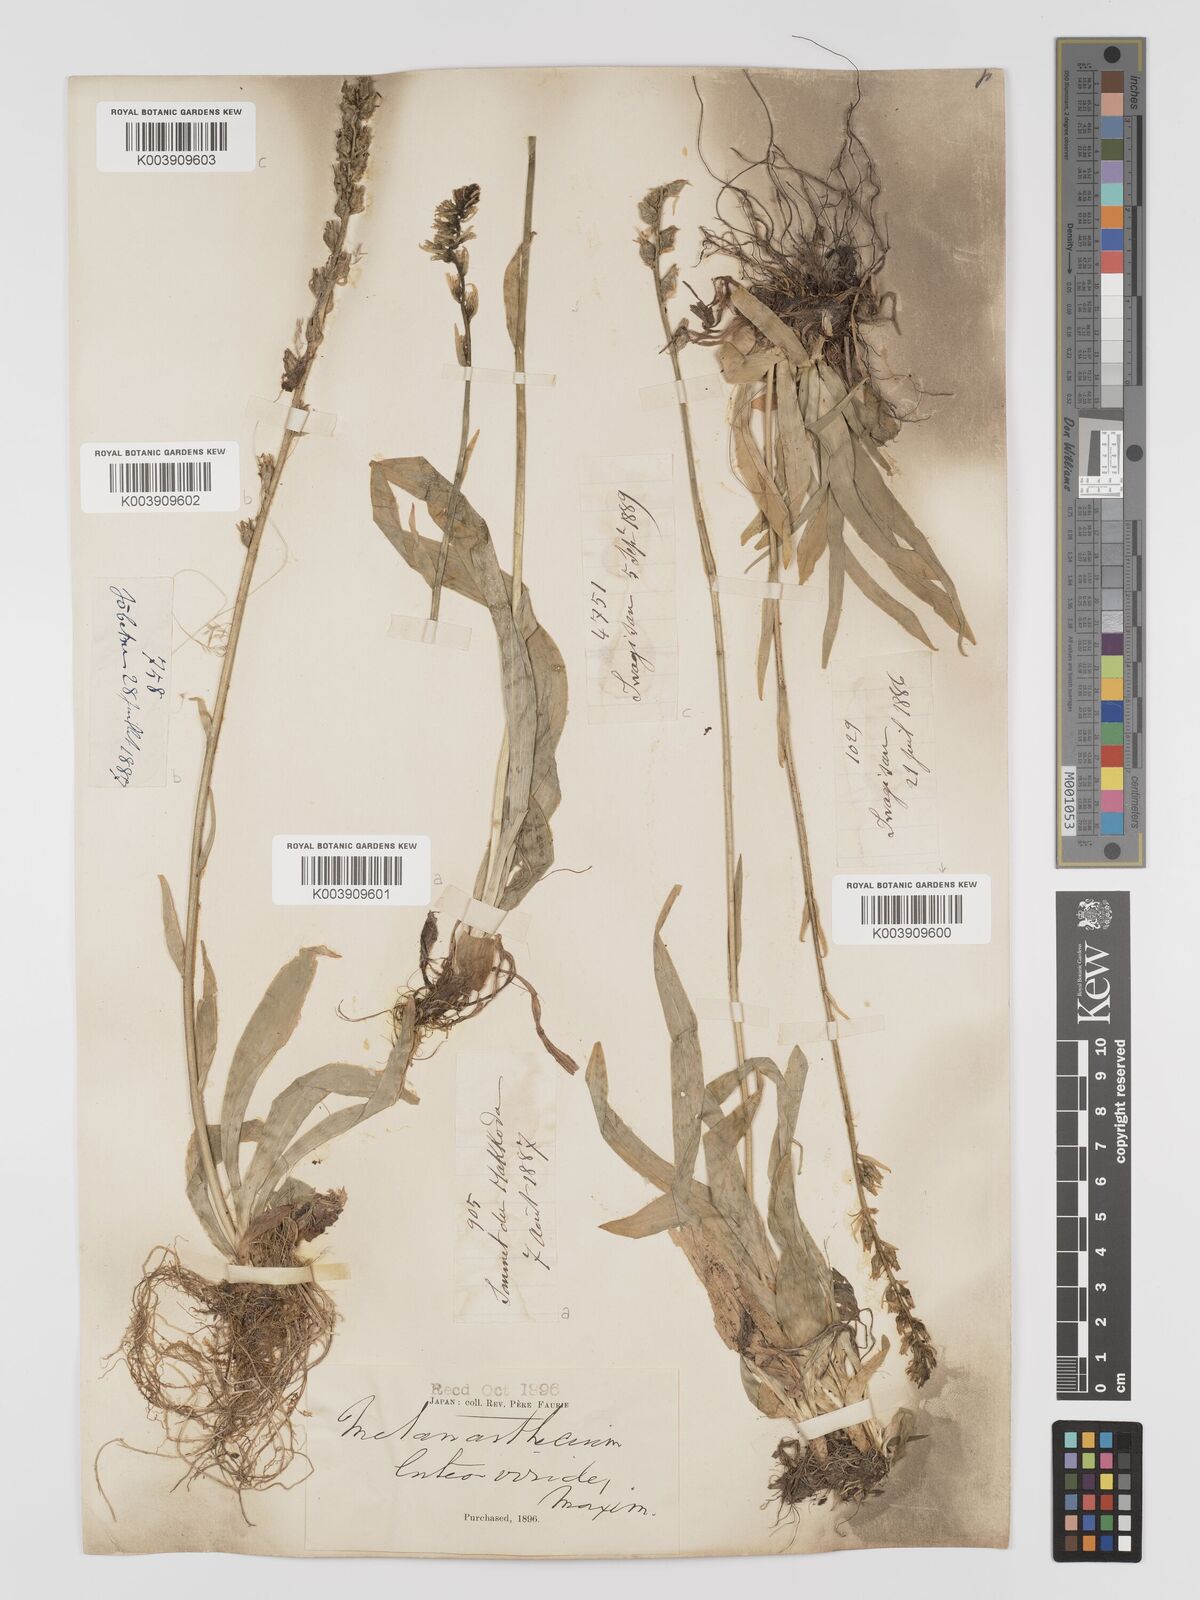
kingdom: Plantae
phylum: Tracheophyta
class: Liliopsida
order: Dioscoreales
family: Nartheciaceae
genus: Aletris
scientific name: Aletris foliata
